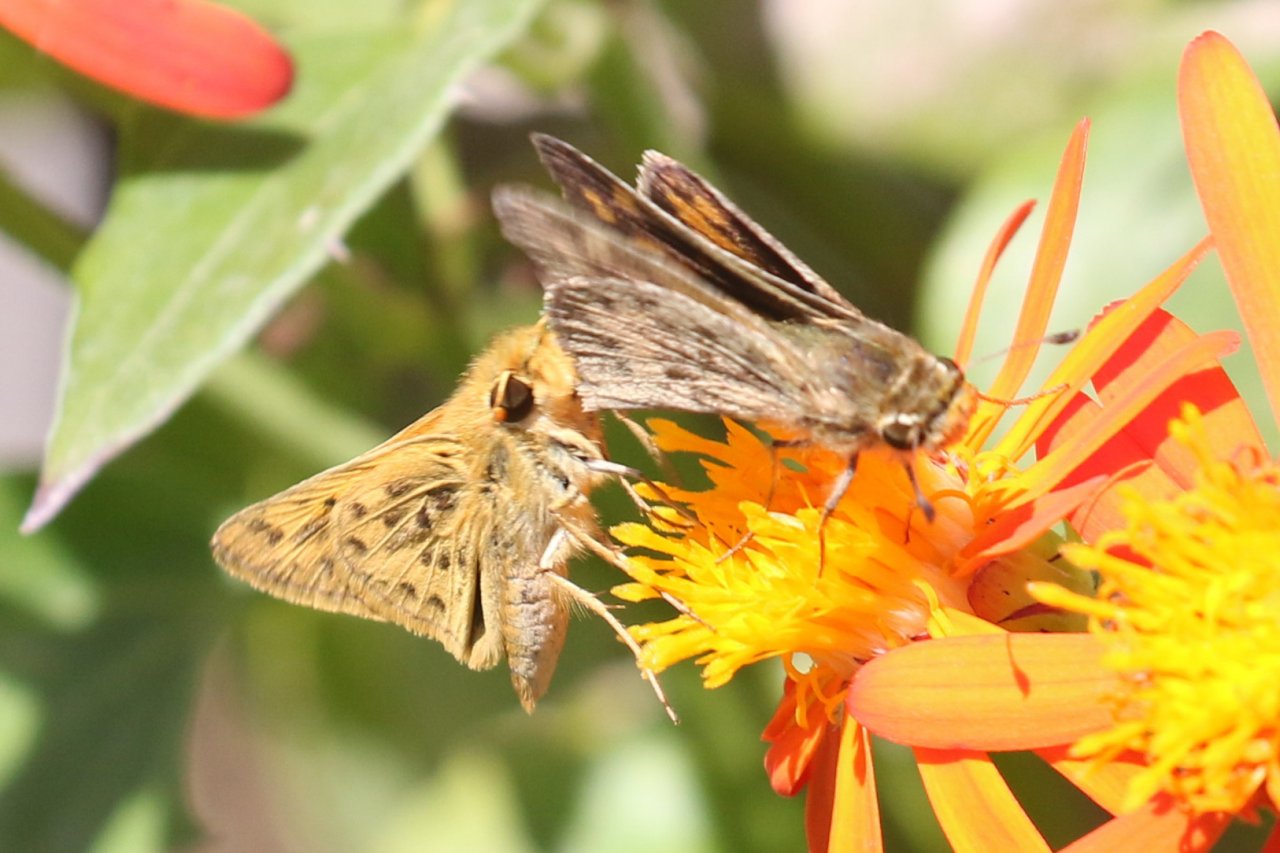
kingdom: Animalia
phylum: Arthropoda
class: Insecta
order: Lepidoptera
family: Hesperiidae
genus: Hylephila
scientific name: Hylephila phyleus
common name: Fiery Skipper
